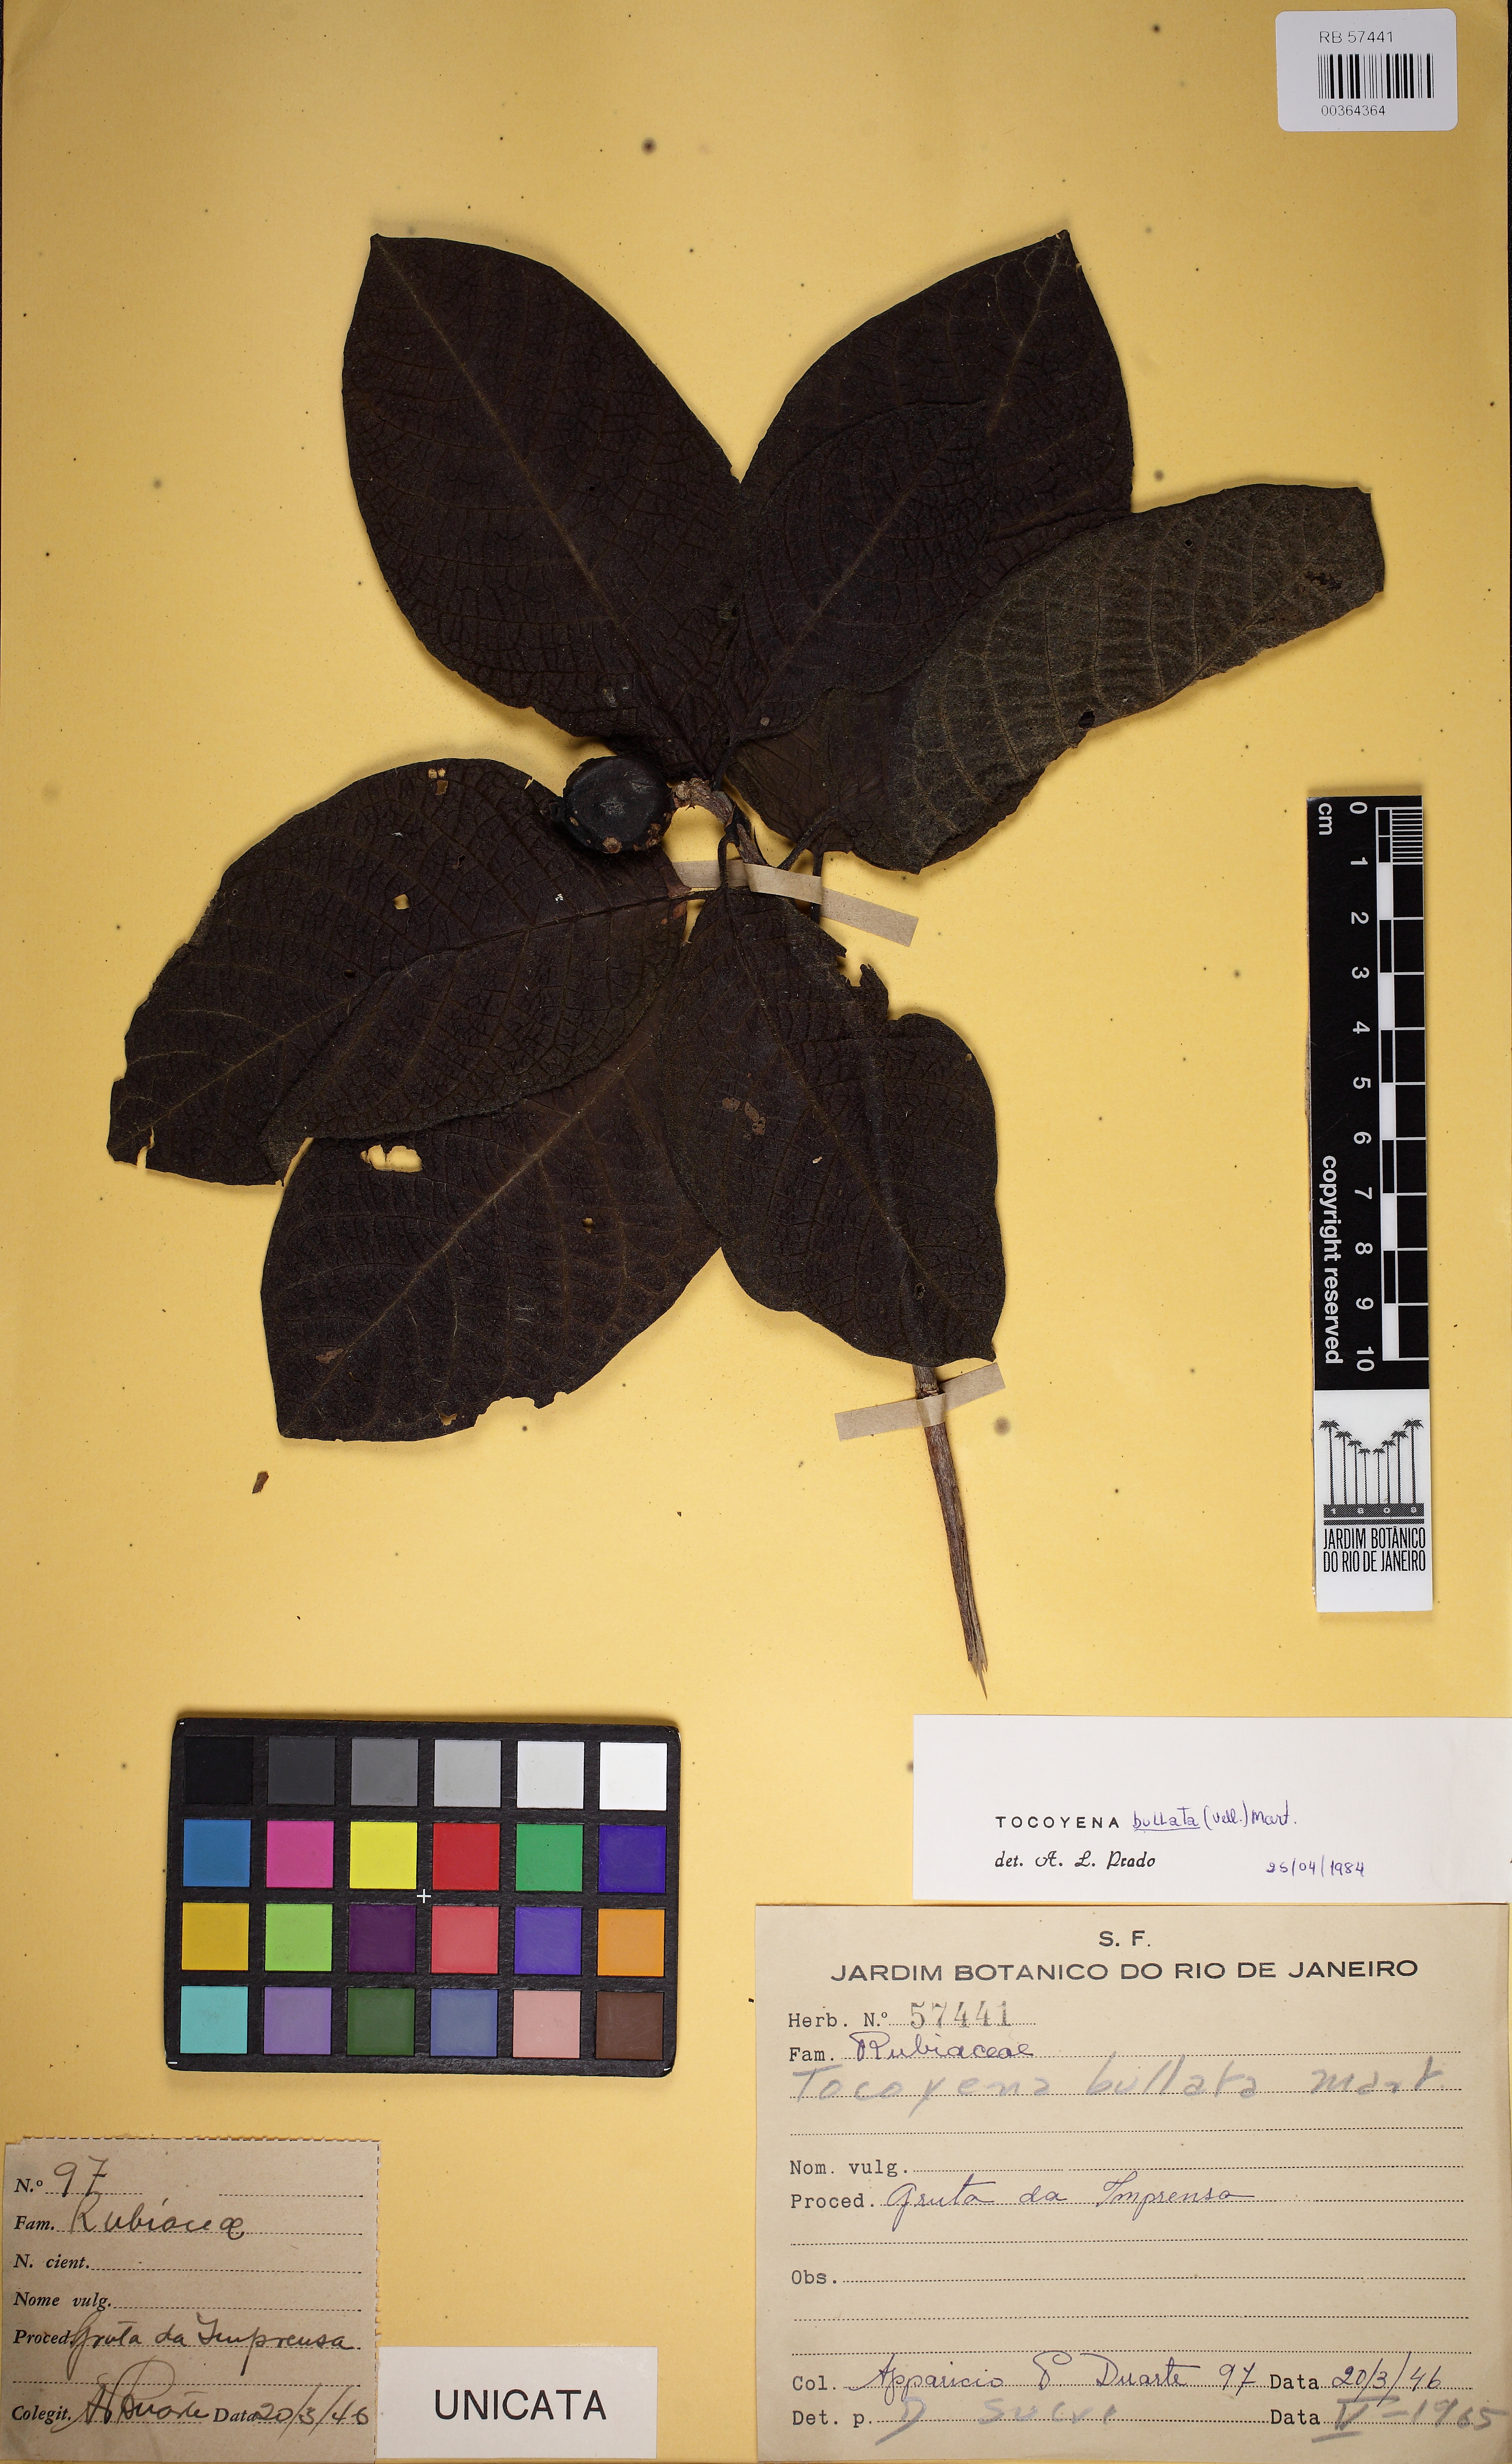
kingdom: Plantae
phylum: Tracheophyta
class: Magnoliopsida
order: Gentianales
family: Rubiaceae
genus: Tocoyena
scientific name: Tocoyena bullata
